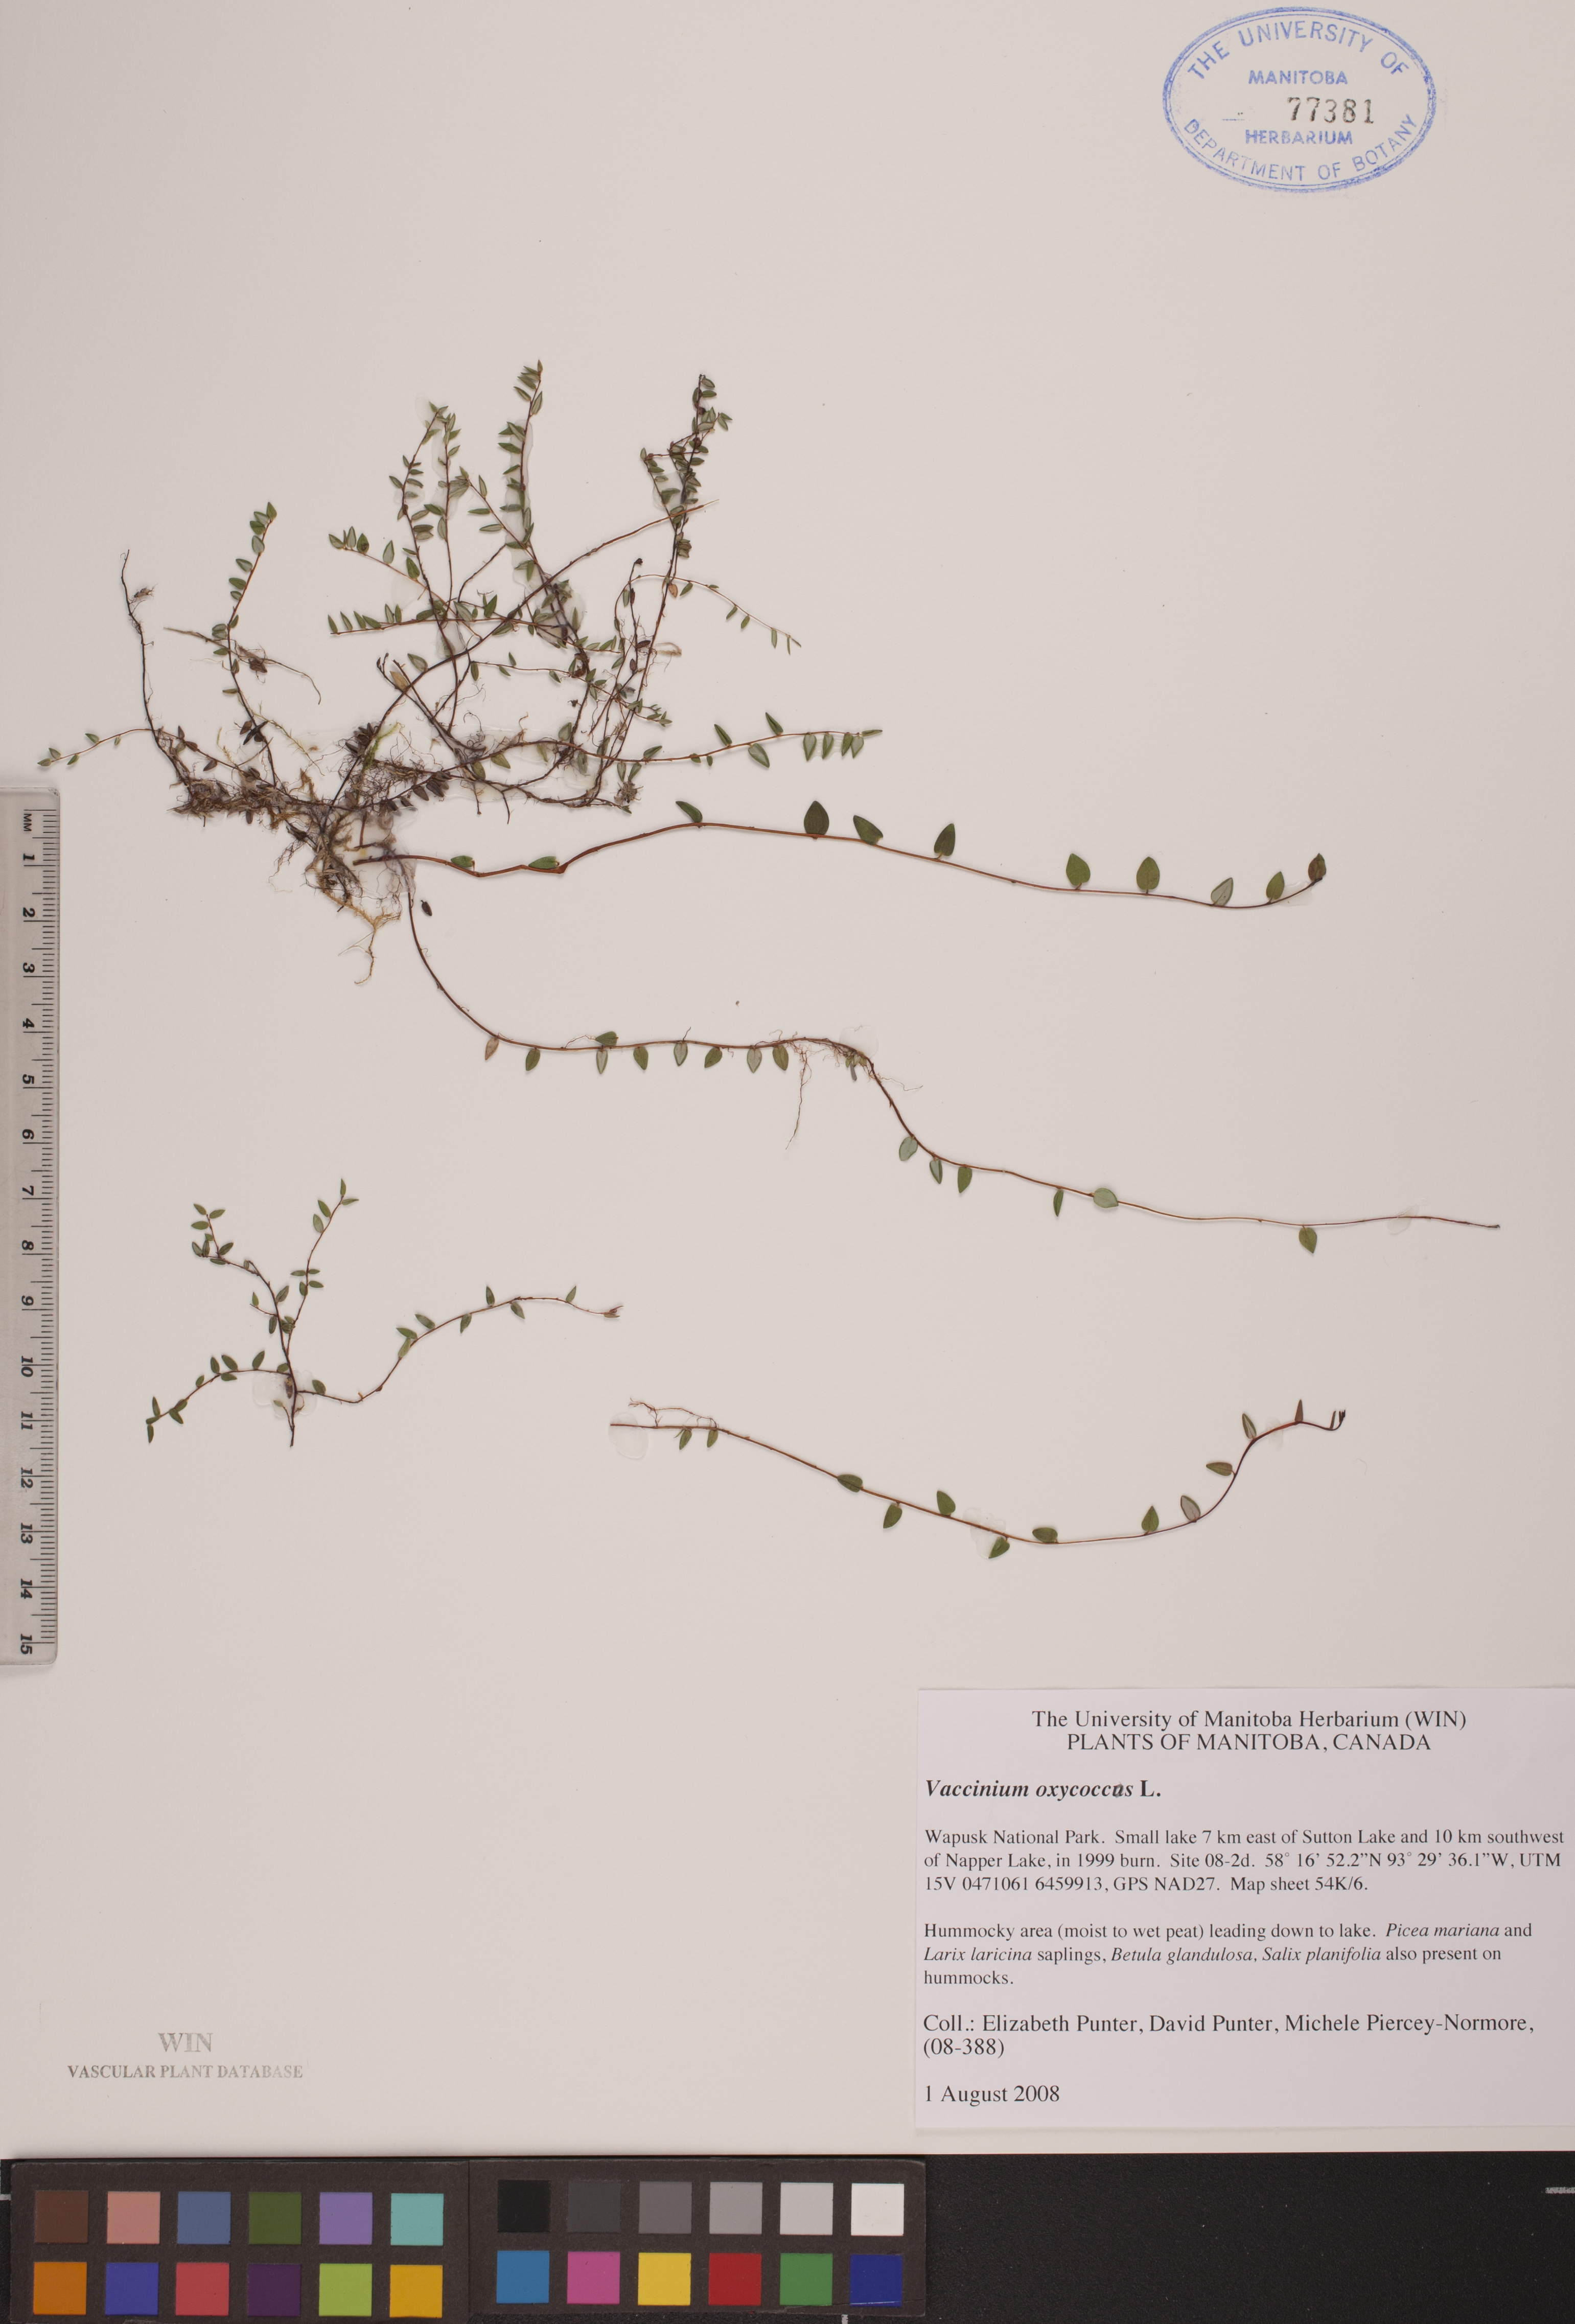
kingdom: Plantae
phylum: Tracheophyta
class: Magnoliopsida
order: Ericales
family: Ericaceae
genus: Vaccinium
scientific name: Vaccinium oxycoccos
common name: Cranberry
